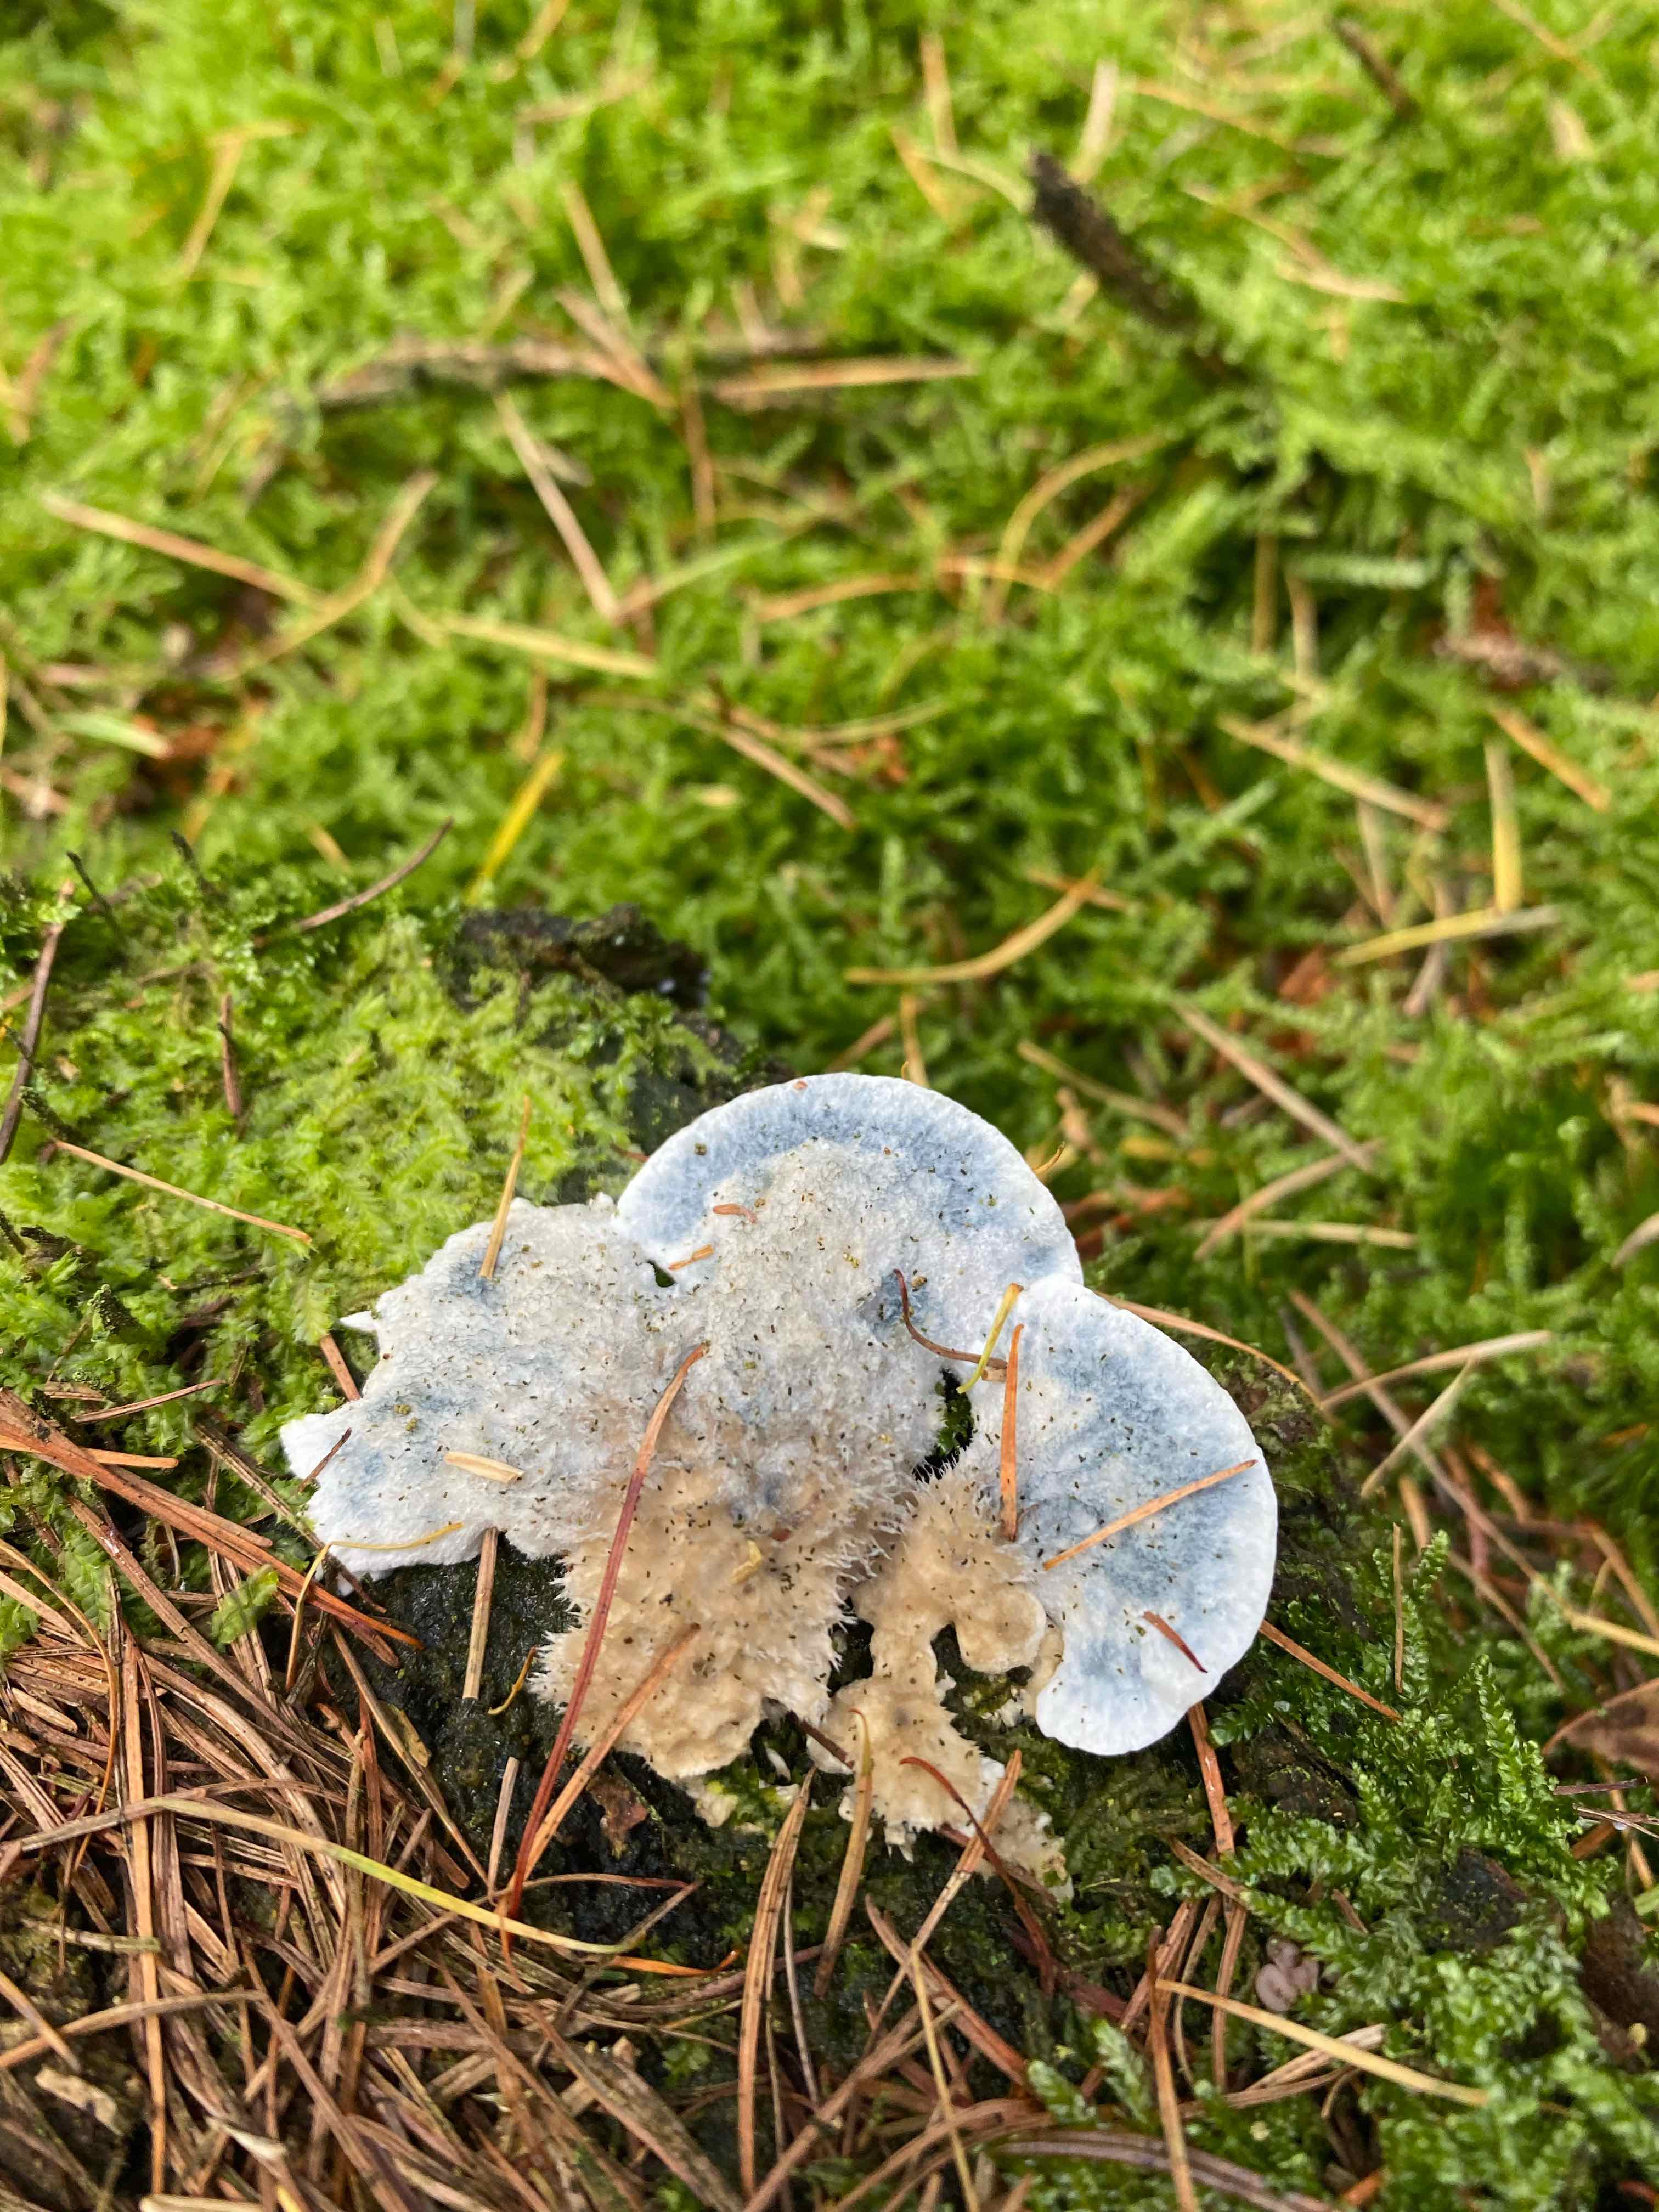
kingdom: Fungi
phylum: Basidiomycota
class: Agaricomycetes
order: Polyporales
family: Polyporaceae
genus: Cyanosporus
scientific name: Cyanosporus caesius
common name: blålig kødporesvamp
